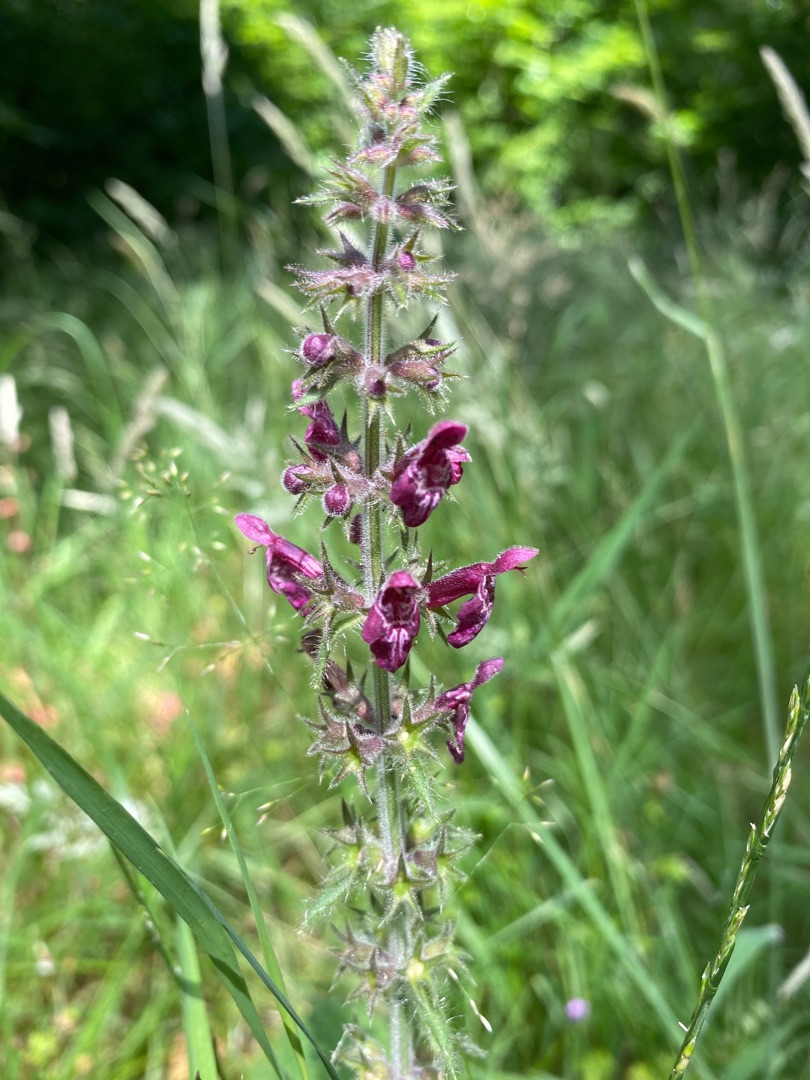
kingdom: Plantae
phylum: Tracheophyta
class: Magnoliopsida
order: Lamiales
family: Lamiaceae
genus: Stachys
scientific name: Stachys sylvatica
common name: Skov-galtetand
